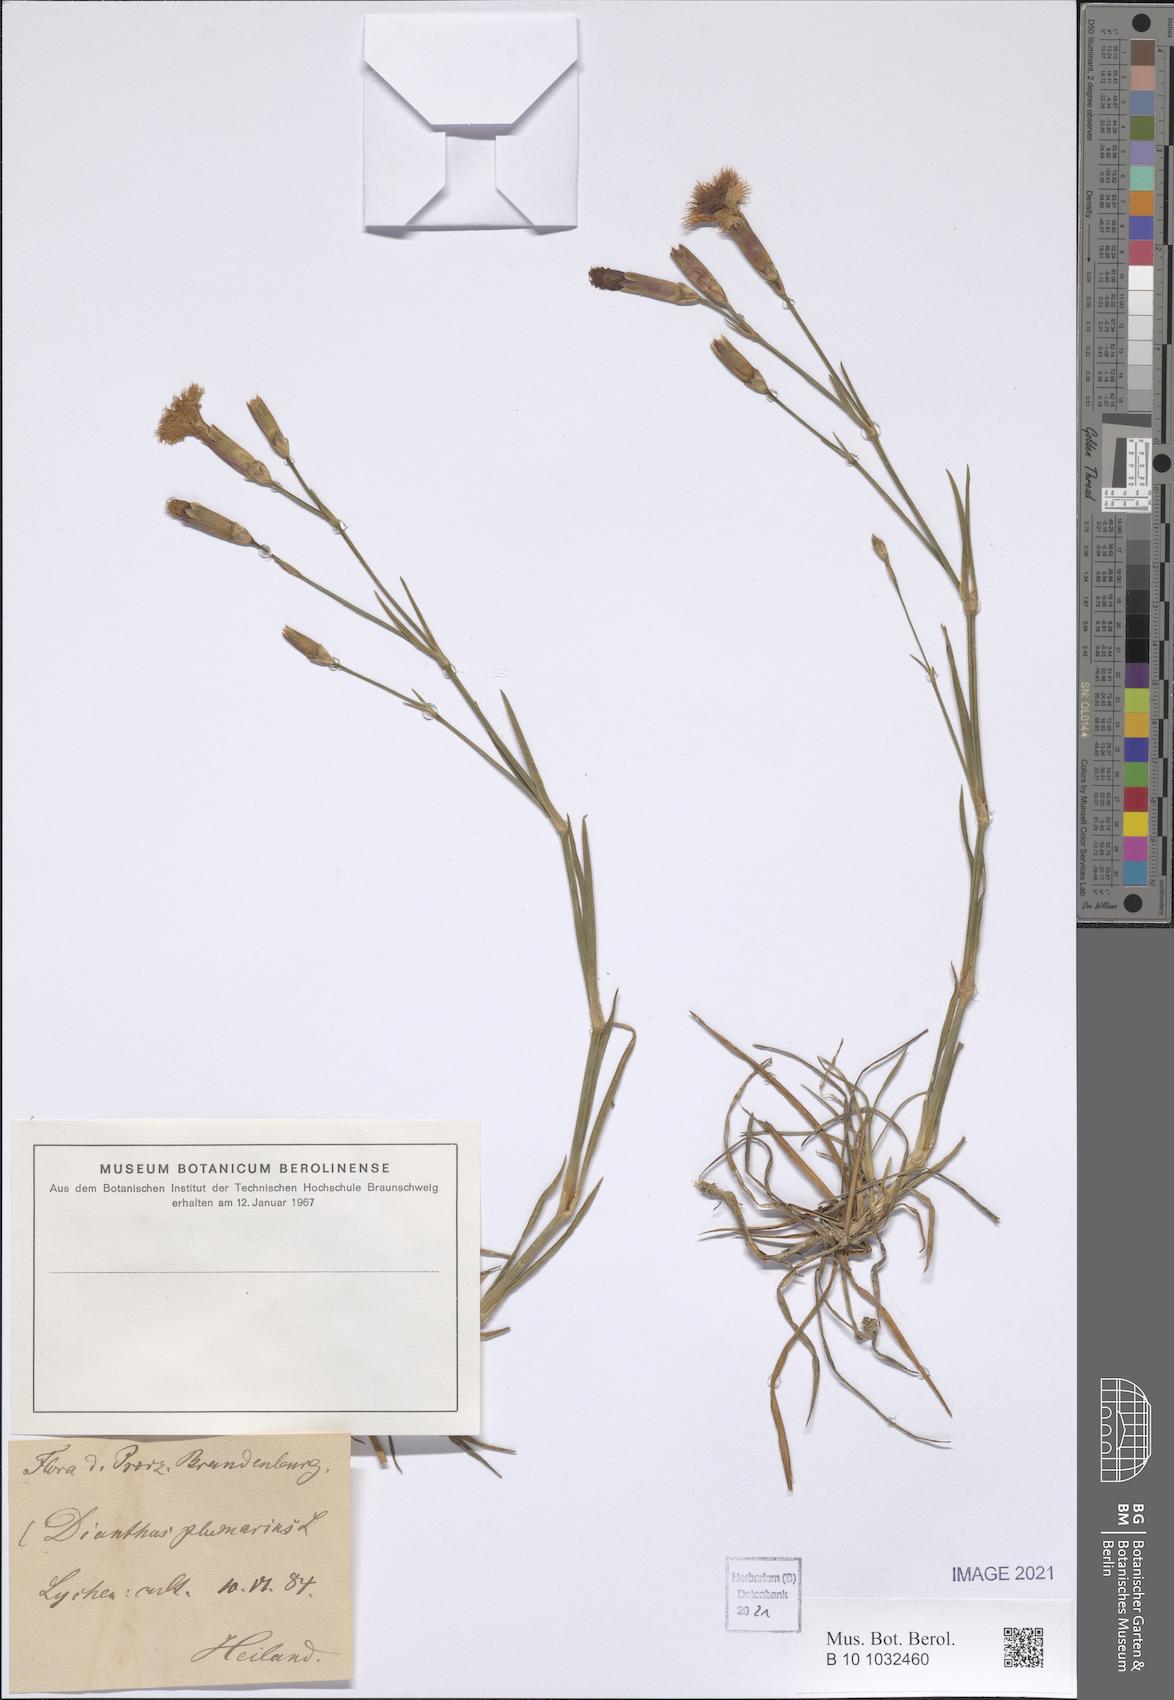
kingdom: Plantae
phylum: Tracheophyta
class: Magnoliopsida
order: Caryophyllales
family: Caryophyllaceae
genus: Dianthus
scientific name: Dianthus plumarius
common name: Pink
